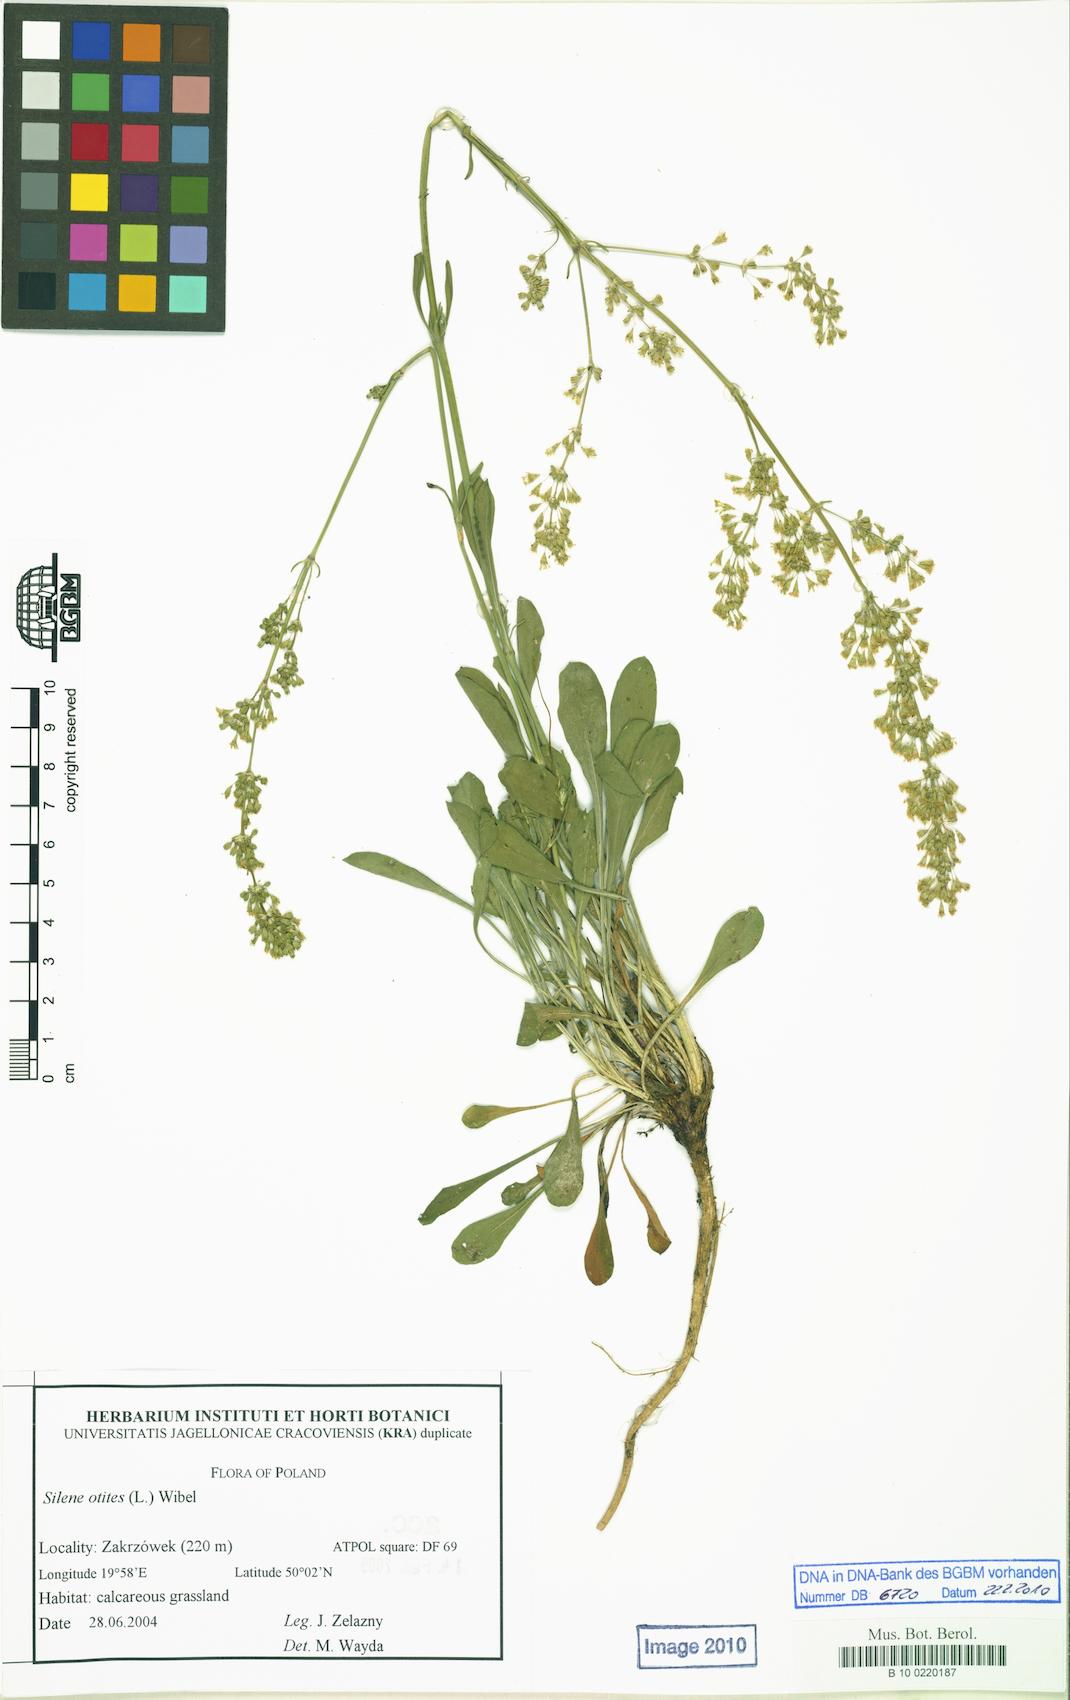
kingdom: Plantae
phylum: Tracheophyta
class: Magnoliopsida
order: Caryophyllales
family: Caryophyllaceae
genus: Silene
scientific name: Silene otites
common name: Spanish catchfly
